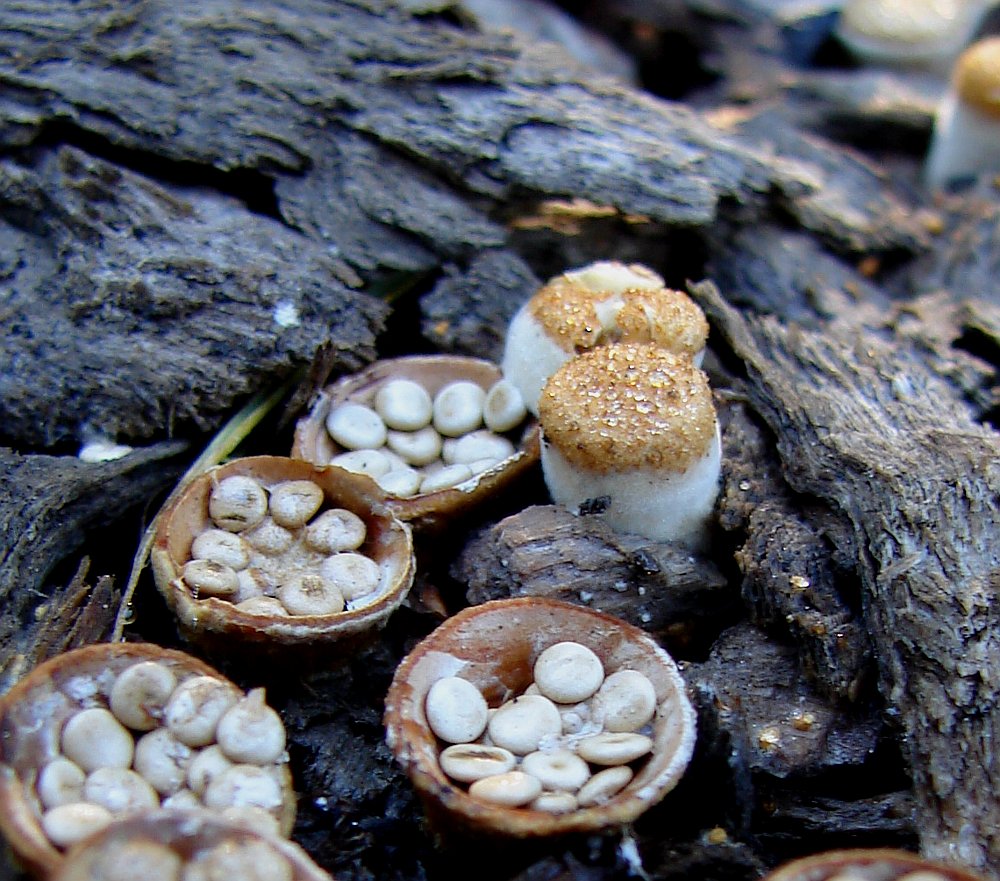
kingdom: Fungi
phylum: Basidiomycota
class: Agaricomycetes
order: Agaricales
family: Nidulariaceae
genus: Crucibulum
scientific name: Crucibulum crucibuliforme
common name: krukkesvamp
